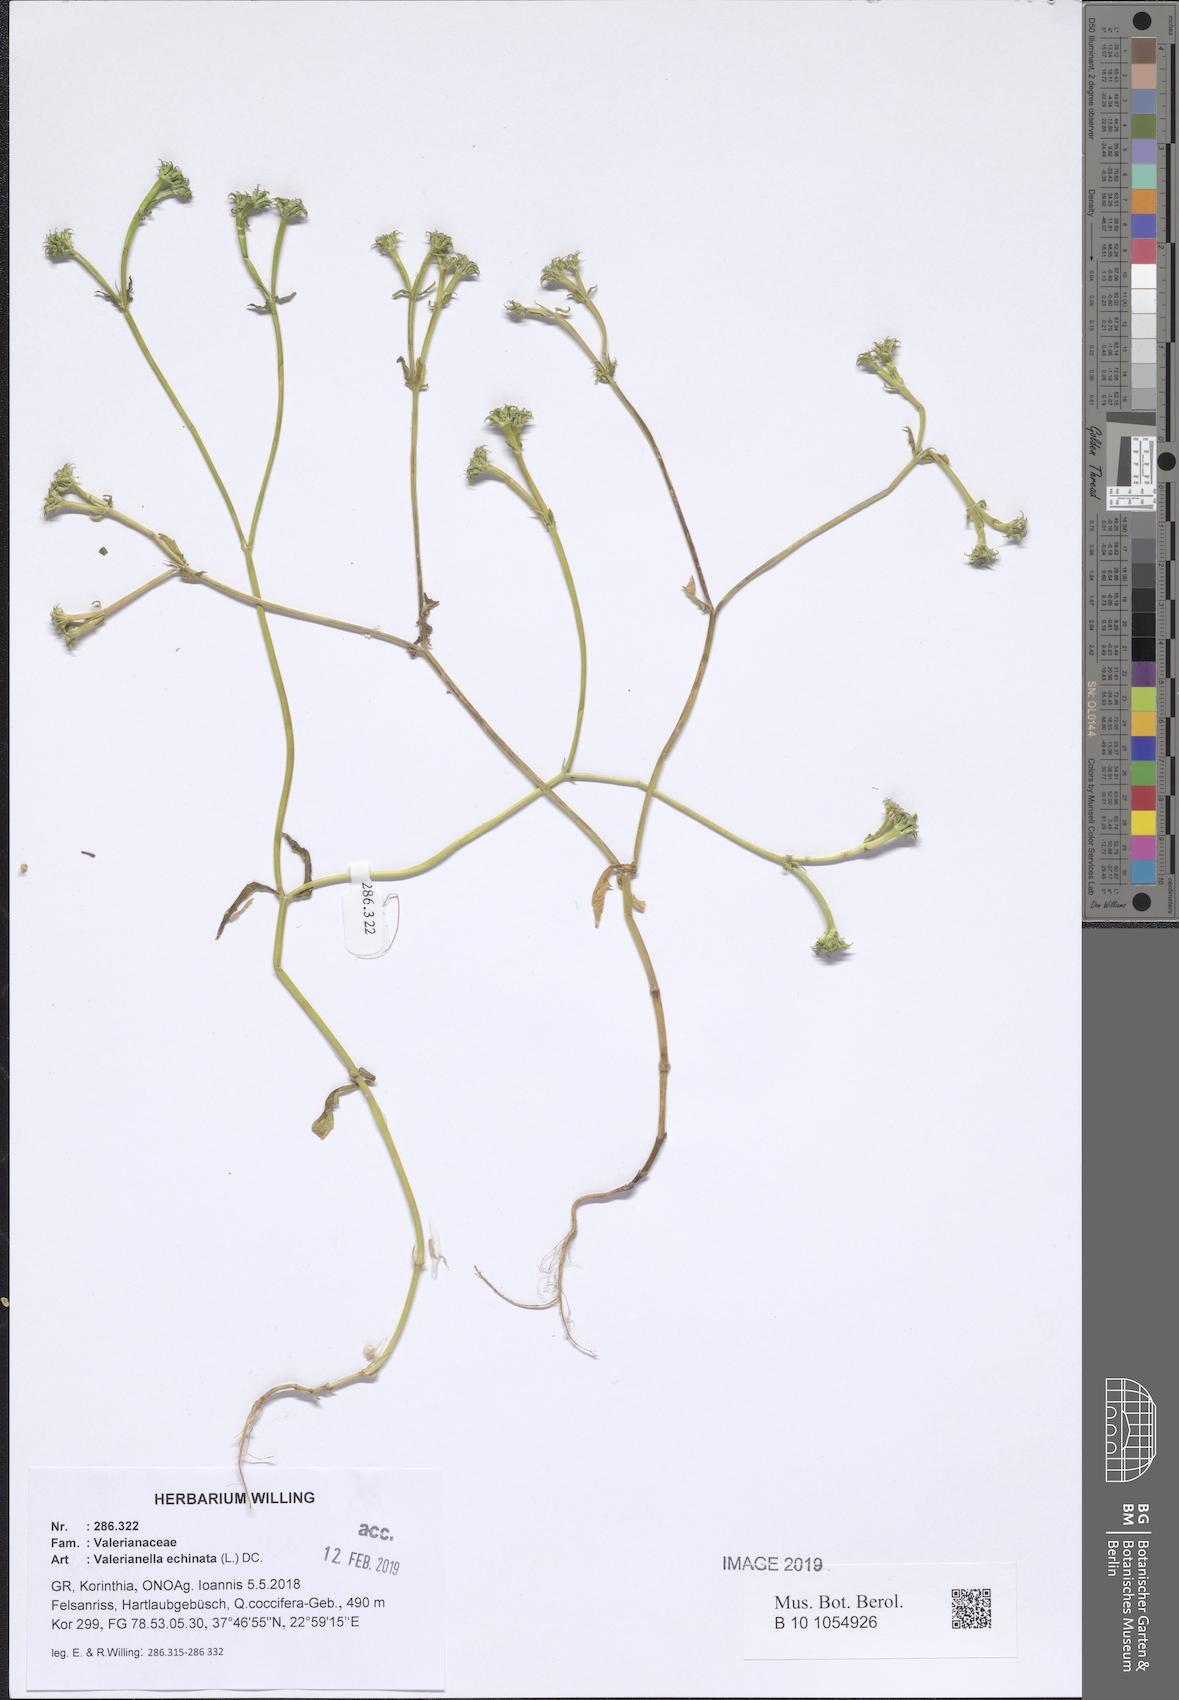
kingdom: Plantae
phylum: Tracheophyta
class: Magnoliopsida
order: Dipsacales
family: Caprifoliaceae
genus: Valerianella
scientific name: Valerianella echinata
